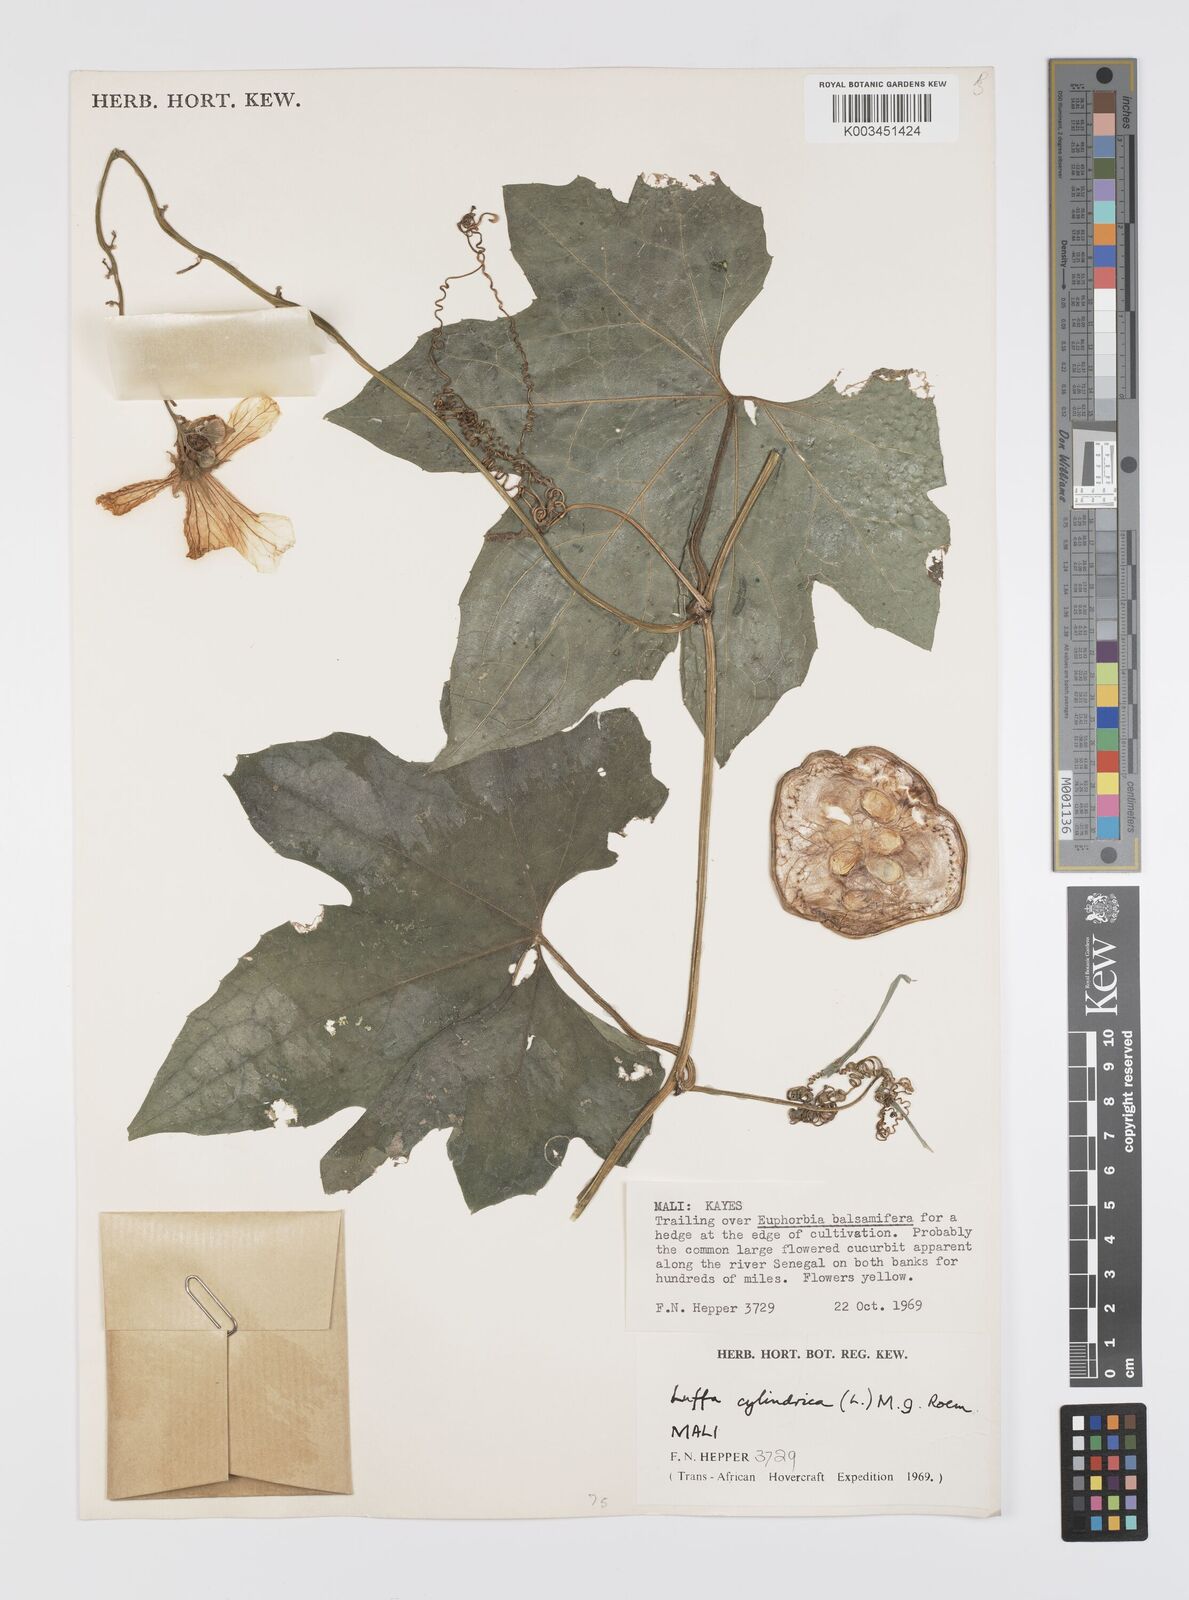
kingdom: Plantae
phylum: Tracheophyta
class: Magnoliopsida
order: Cucurbitales
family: Cucurbitaceae
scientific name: Cucurbitaceae
